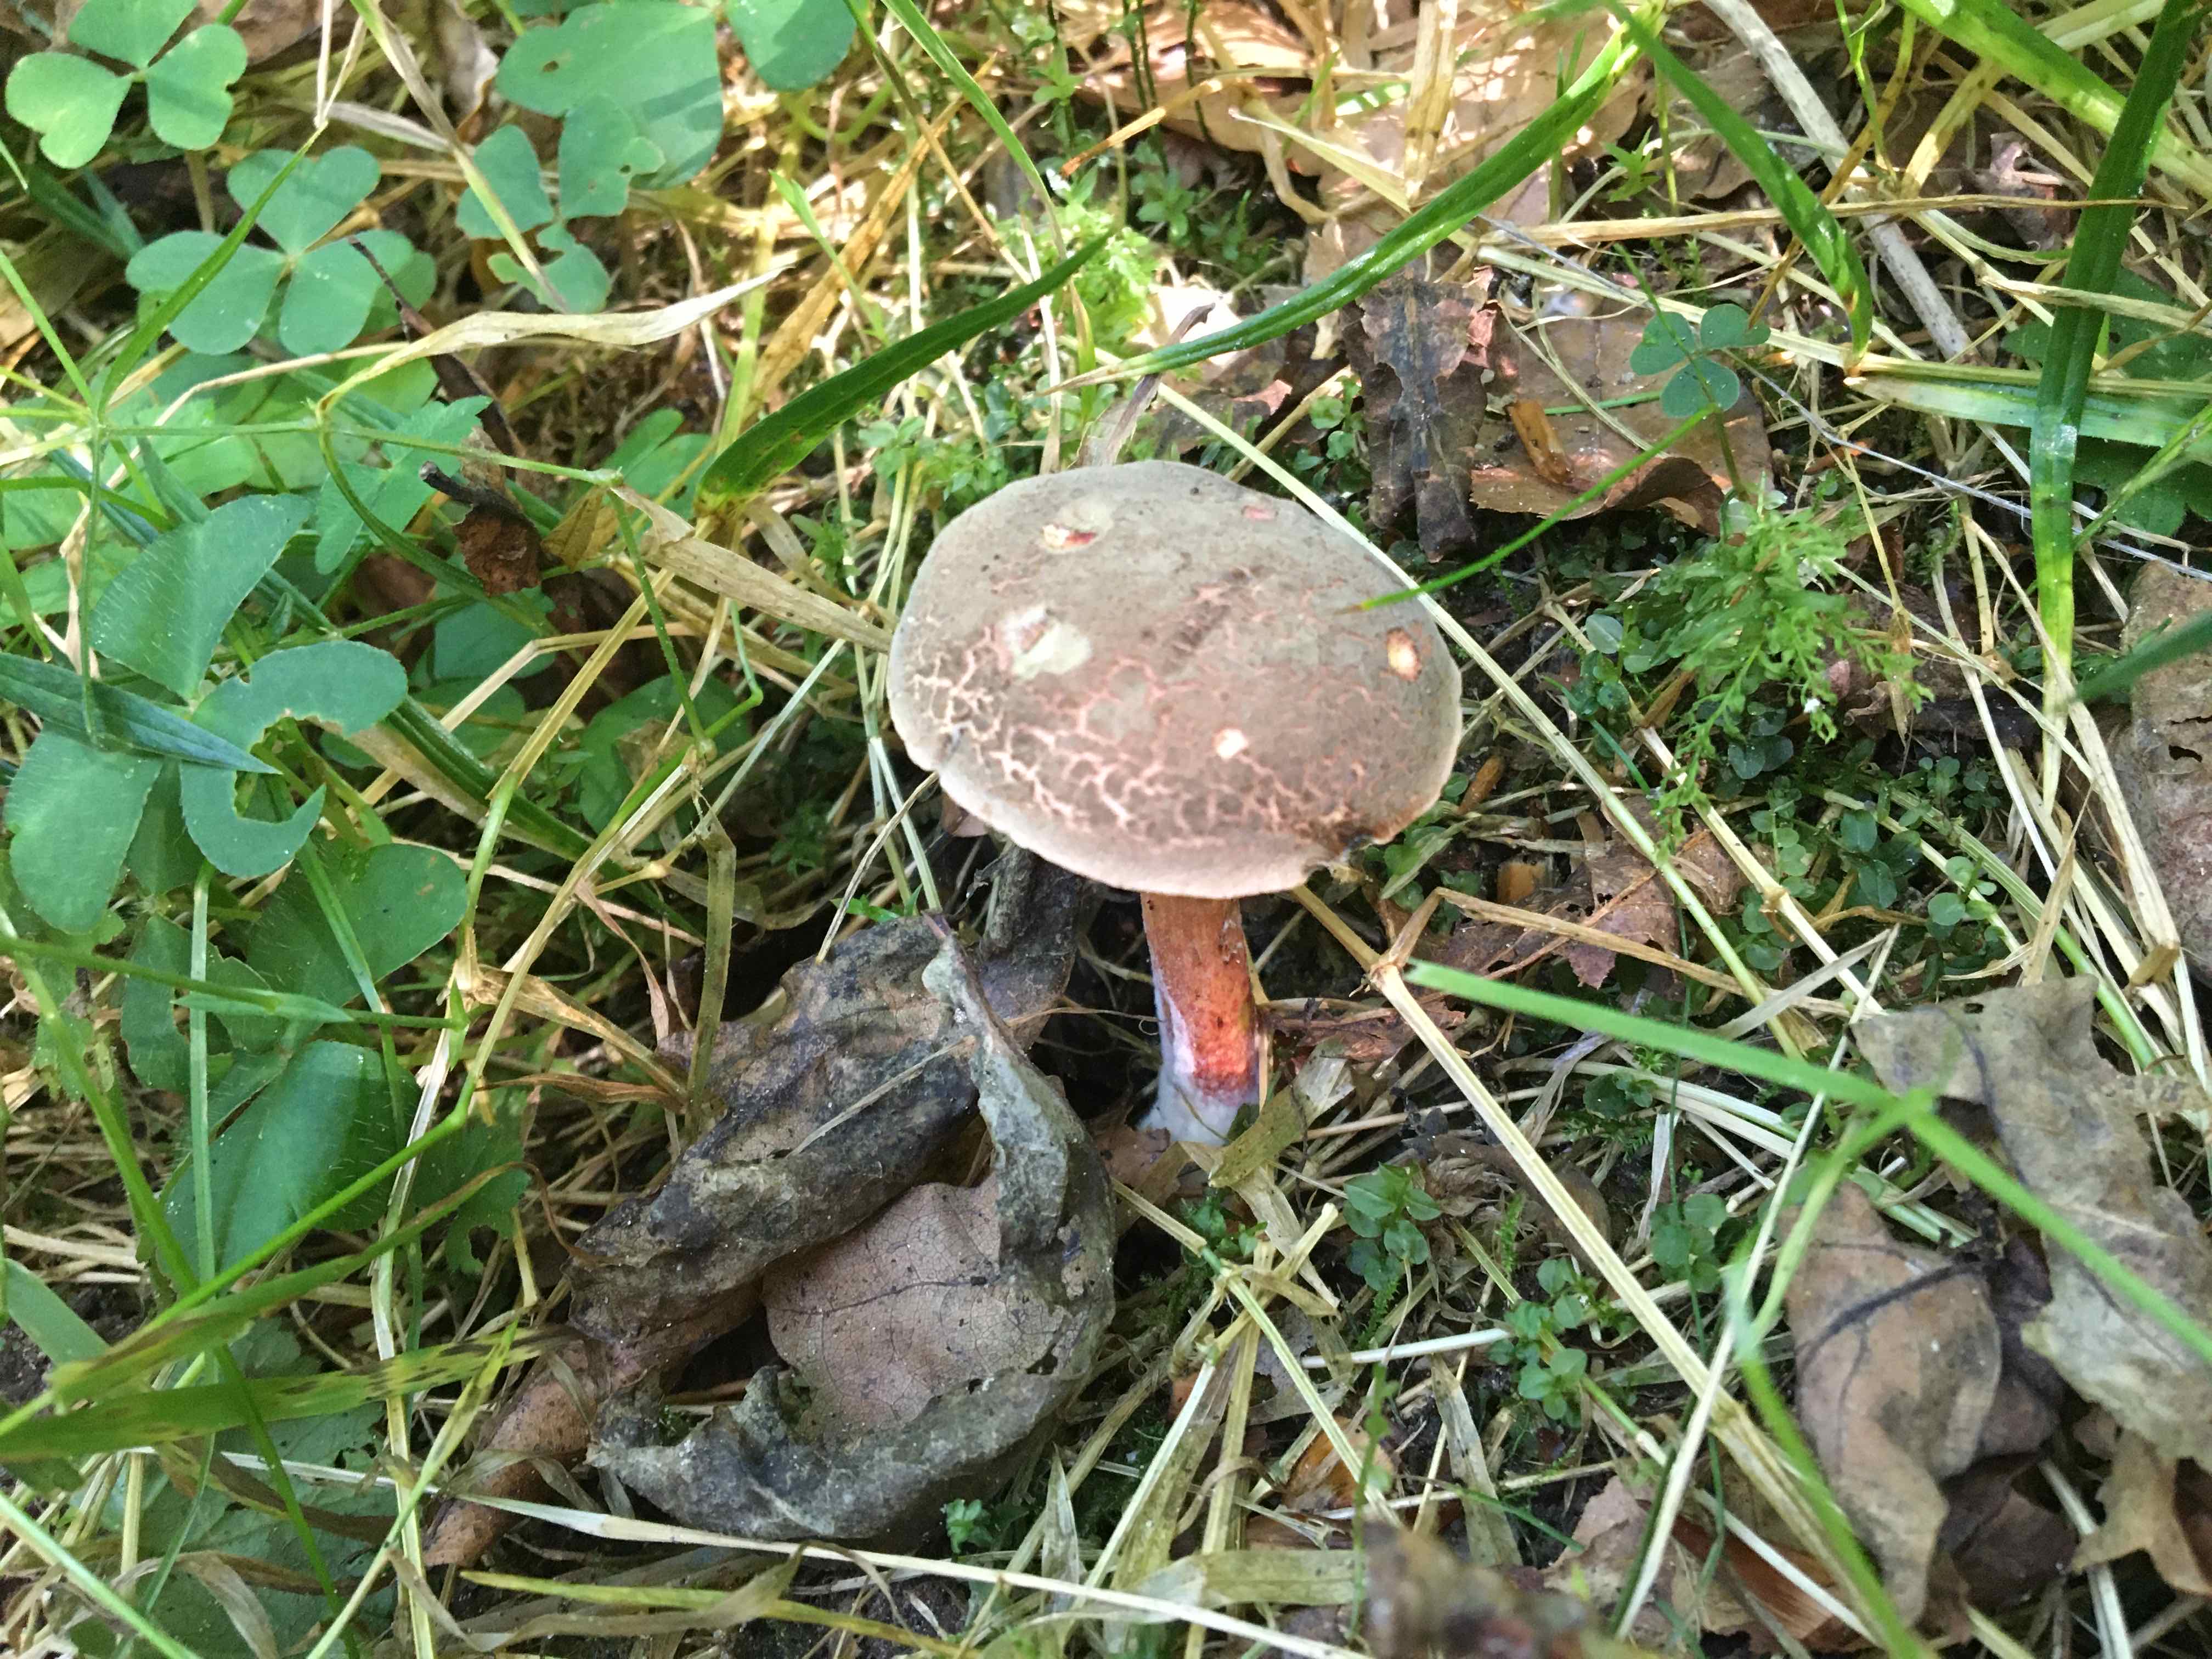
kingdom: Fungi
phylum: Basidiomycota
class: Agaricomycetes
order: Boletales
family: Boletaceae
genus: Xerocomellus
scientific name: Xerocomellus cisalpinus
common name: finsprukken rørhat
